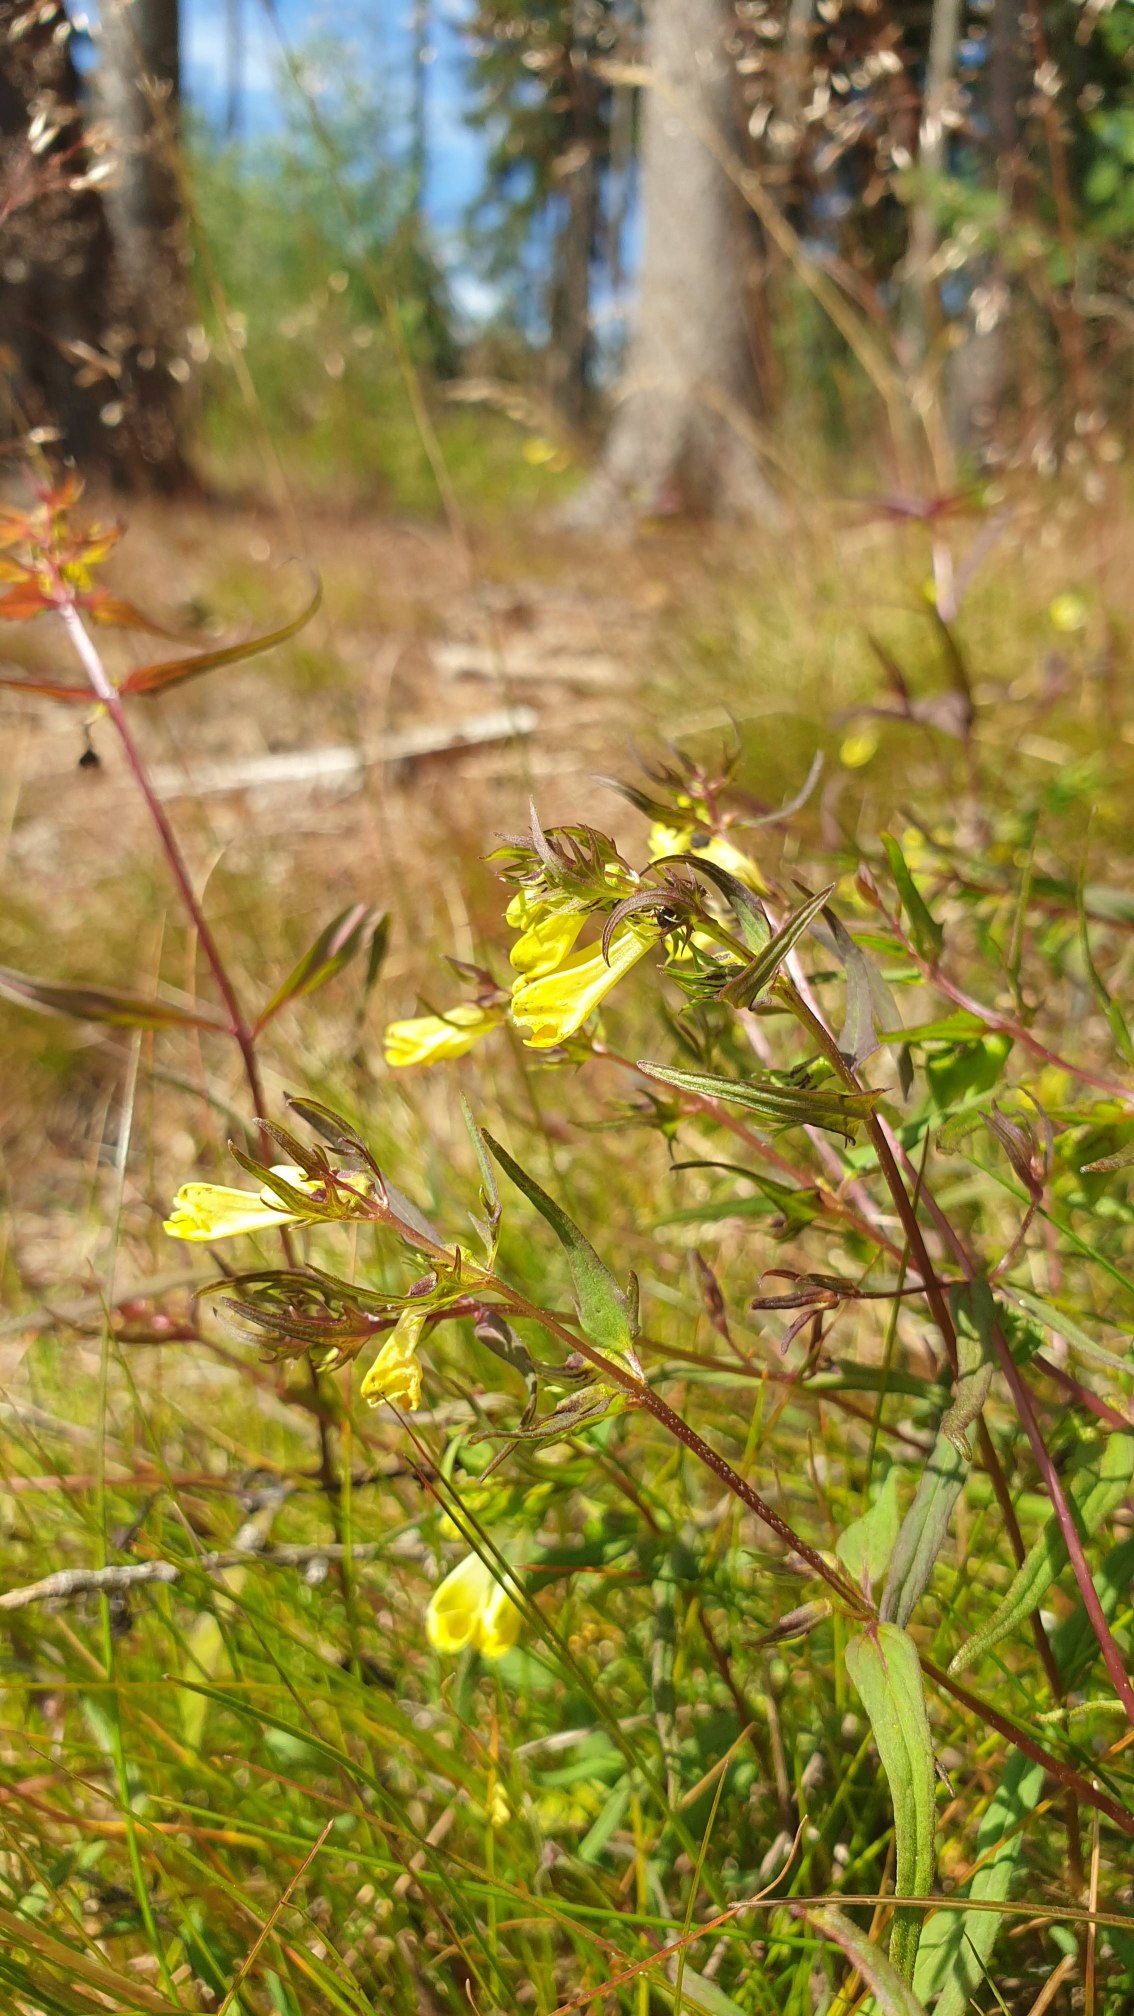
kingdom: Plantae
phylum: Tracheophyta
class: Magnoliopsida
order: Lamiales
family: Orobanchaceae
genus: Melampyrum
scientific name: Melampyrum pratense
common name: Almindelig kohvede
